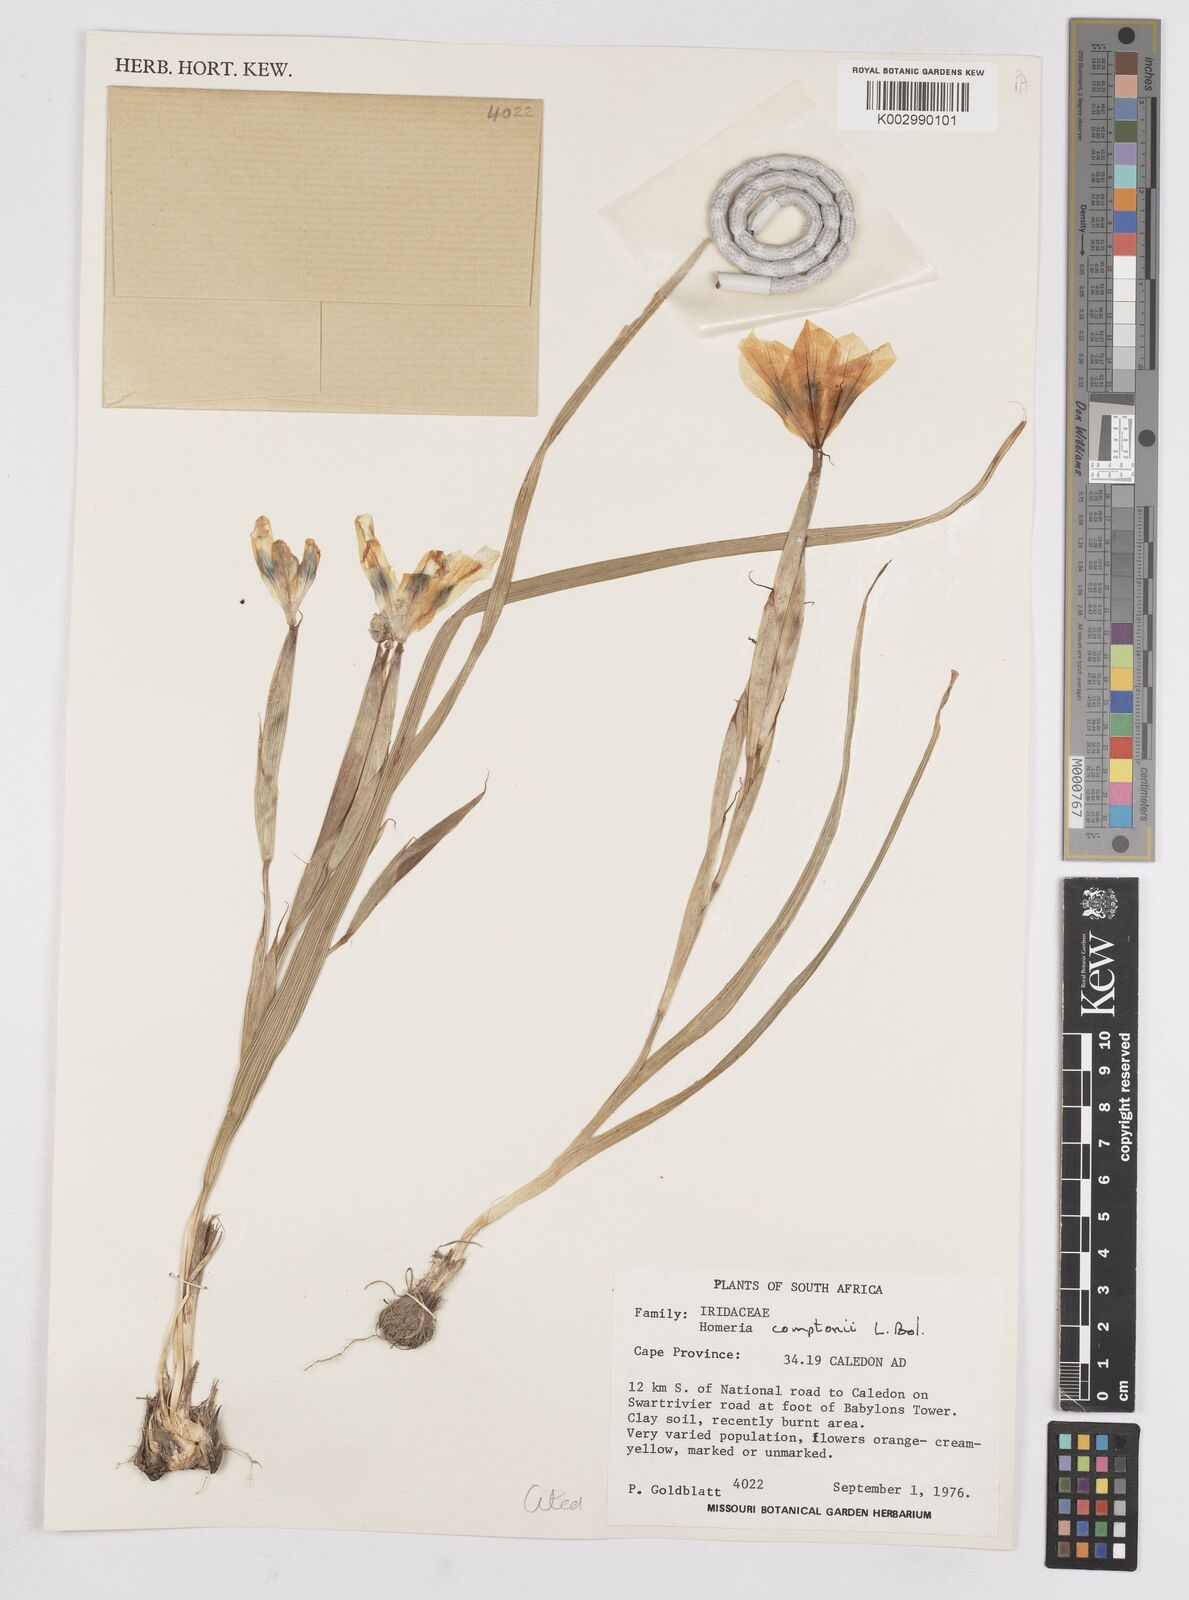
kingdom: Plantae
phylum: Tracheophyta
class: Liliopsida
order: Asparagales
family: Iridaceae
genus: Moraea
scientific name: Moraea comptonii
